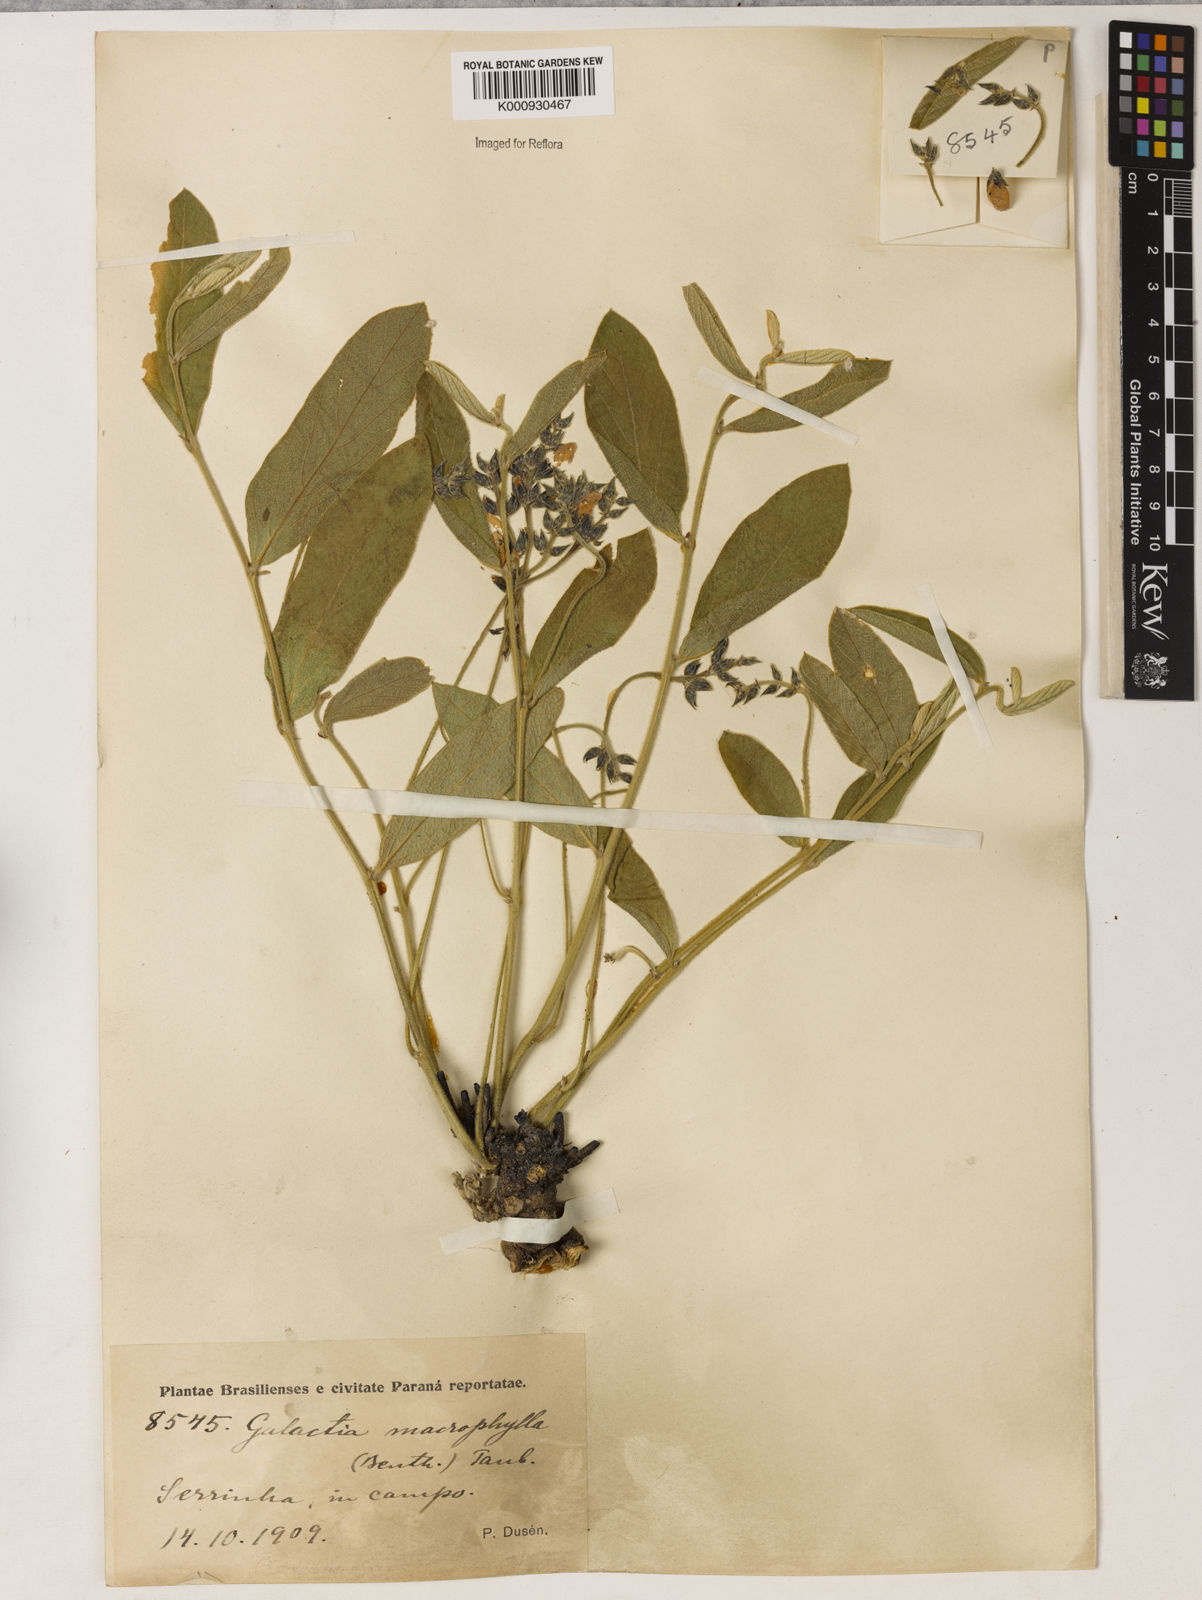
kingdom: Plantae
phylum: Tracheophyta
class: Magnoliopsida
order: Fabales
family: Fabaceae
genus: Cerradicola
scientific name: Cerradicola boavista
